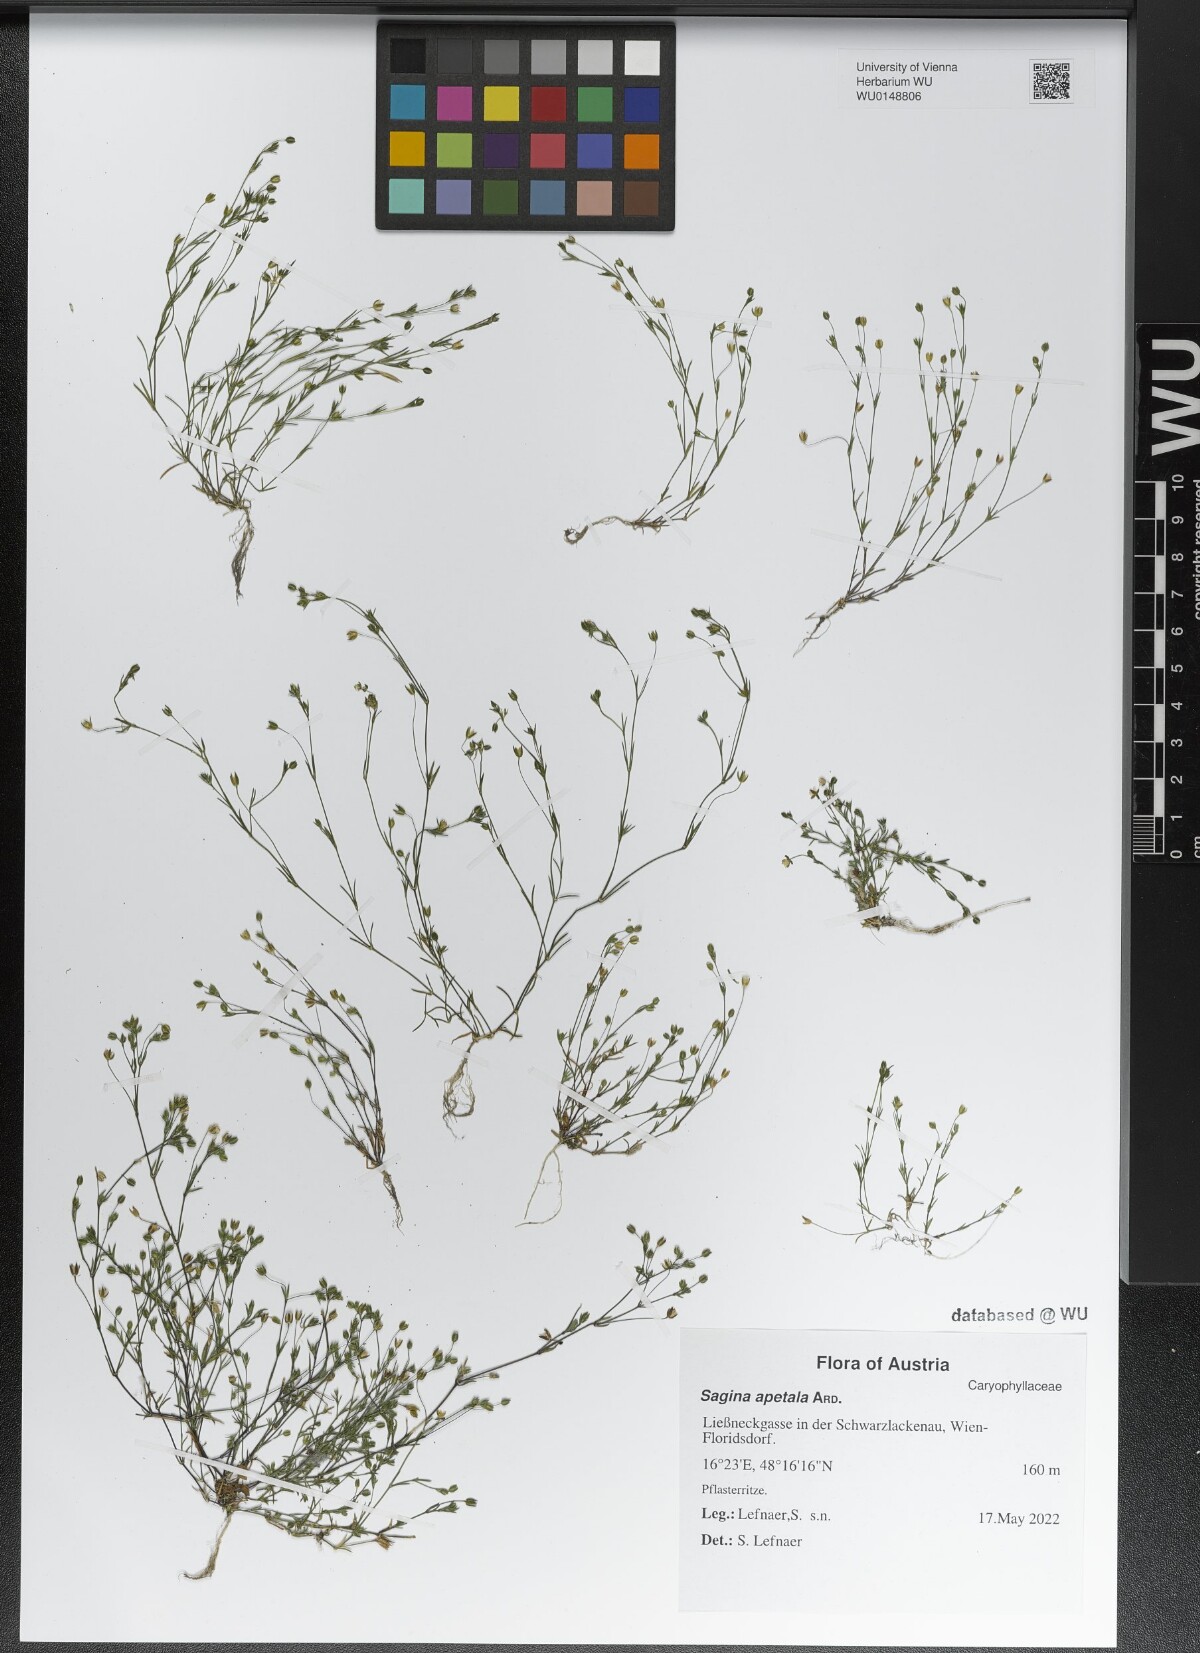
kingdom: Plantae
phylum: Tracheophyta
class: Magnoliopsida
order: Caryophyllales
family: Caryophyllaceae
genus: Sagina
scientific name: Sagina apetala
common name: Annual pearlwort
